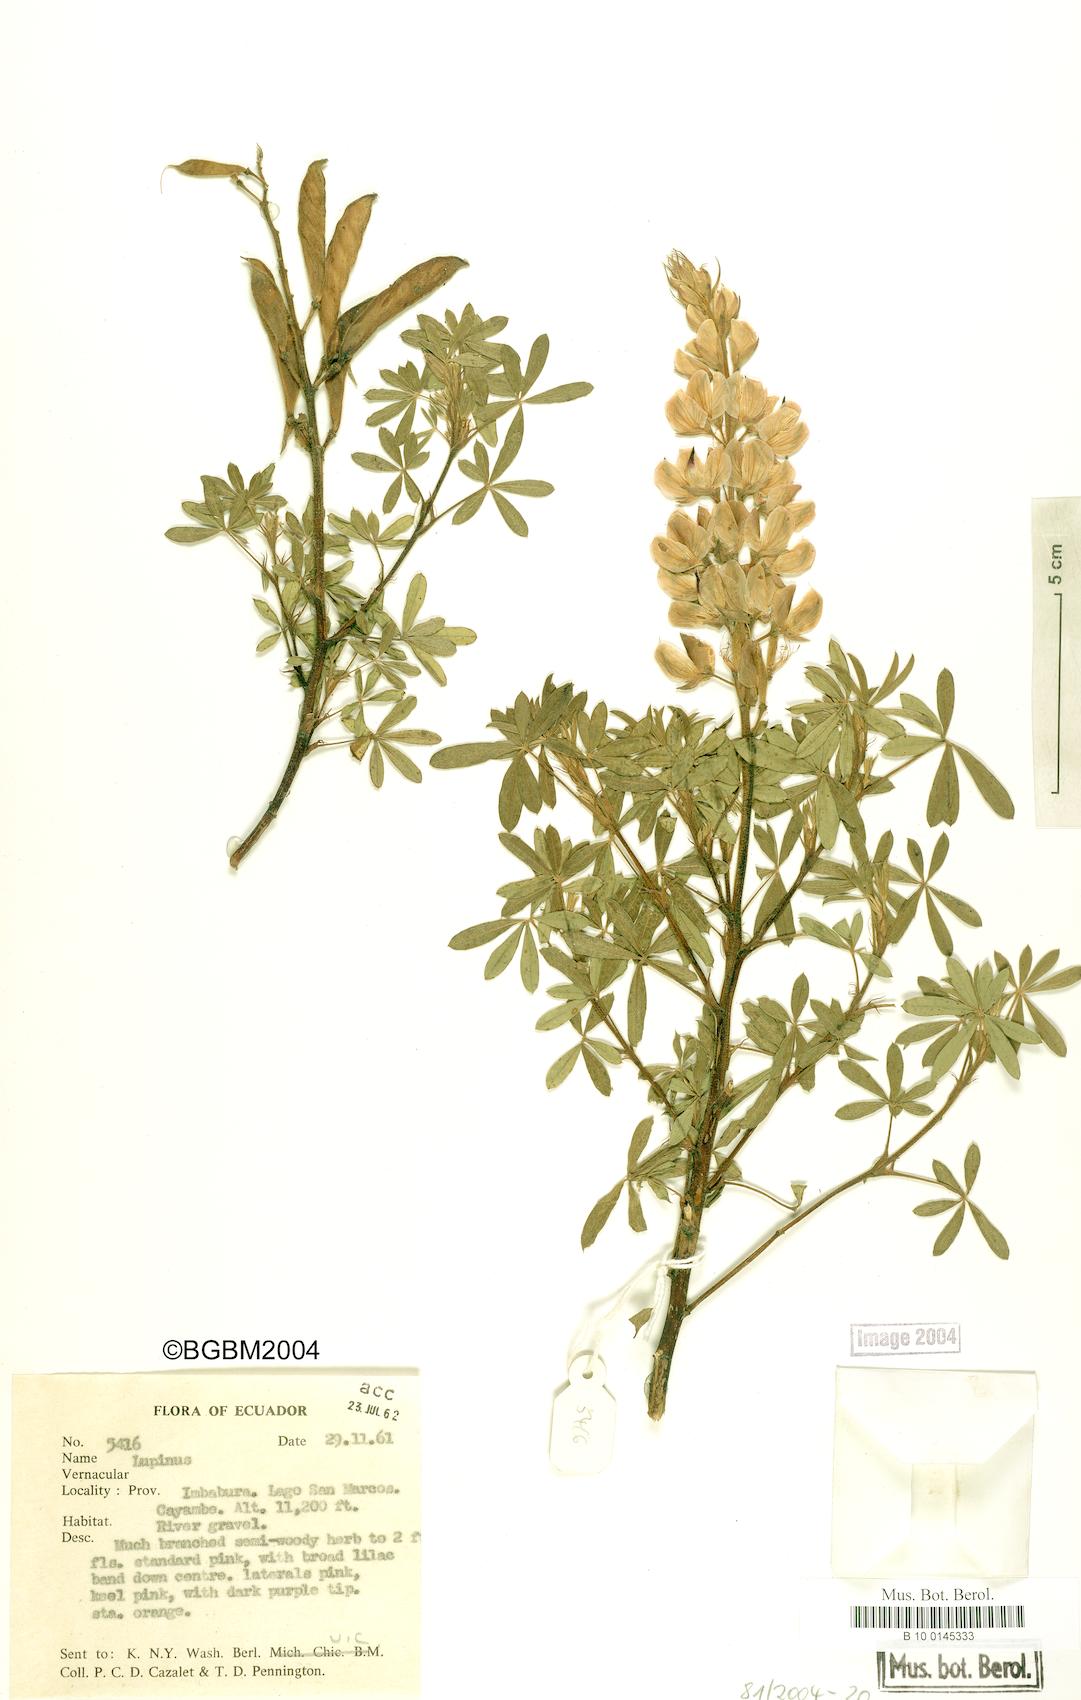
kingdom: Plantae
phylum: Tracheophyta
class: Magnoliopsida
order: Fabales
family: Fabaceae
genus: Lupinus
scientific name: Lupinus
